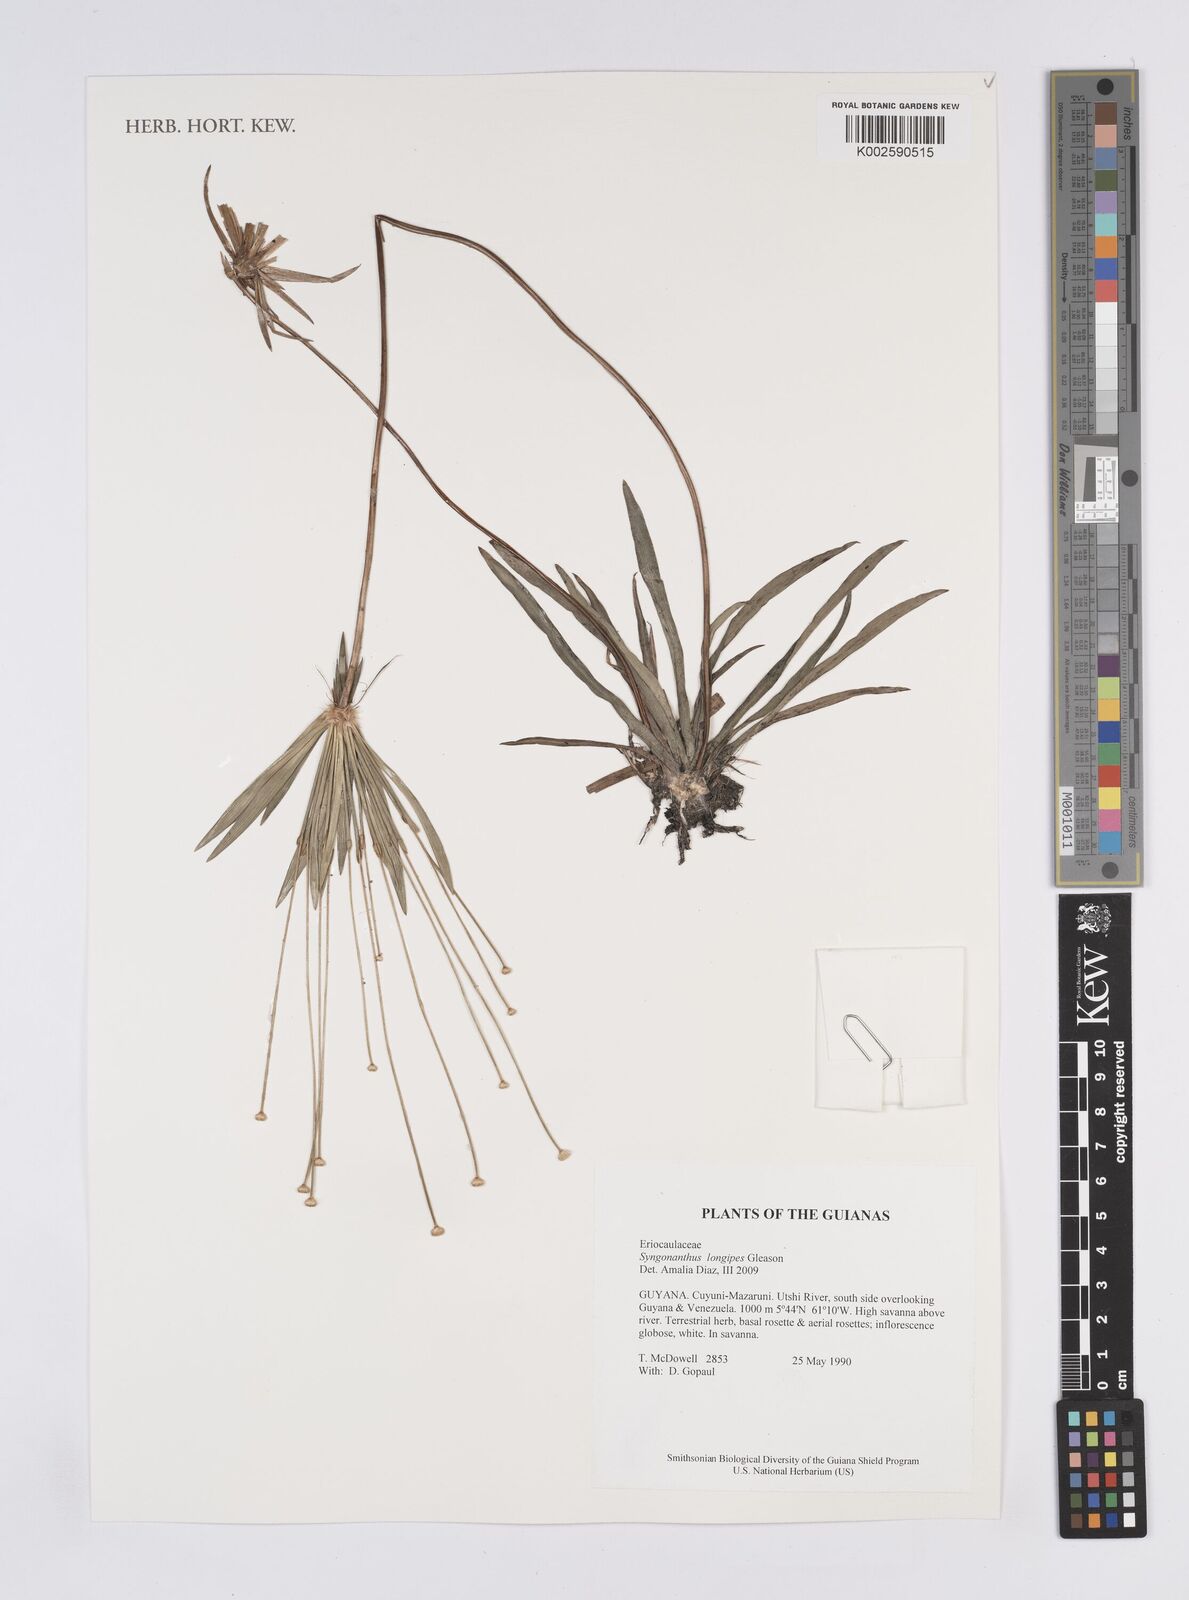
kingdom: Plantae
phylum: Tracheophyta
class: Liliopsida
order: Poales
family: Eriocaulaceae
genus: Syngonanthus
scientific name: Syngonanthus longipes
